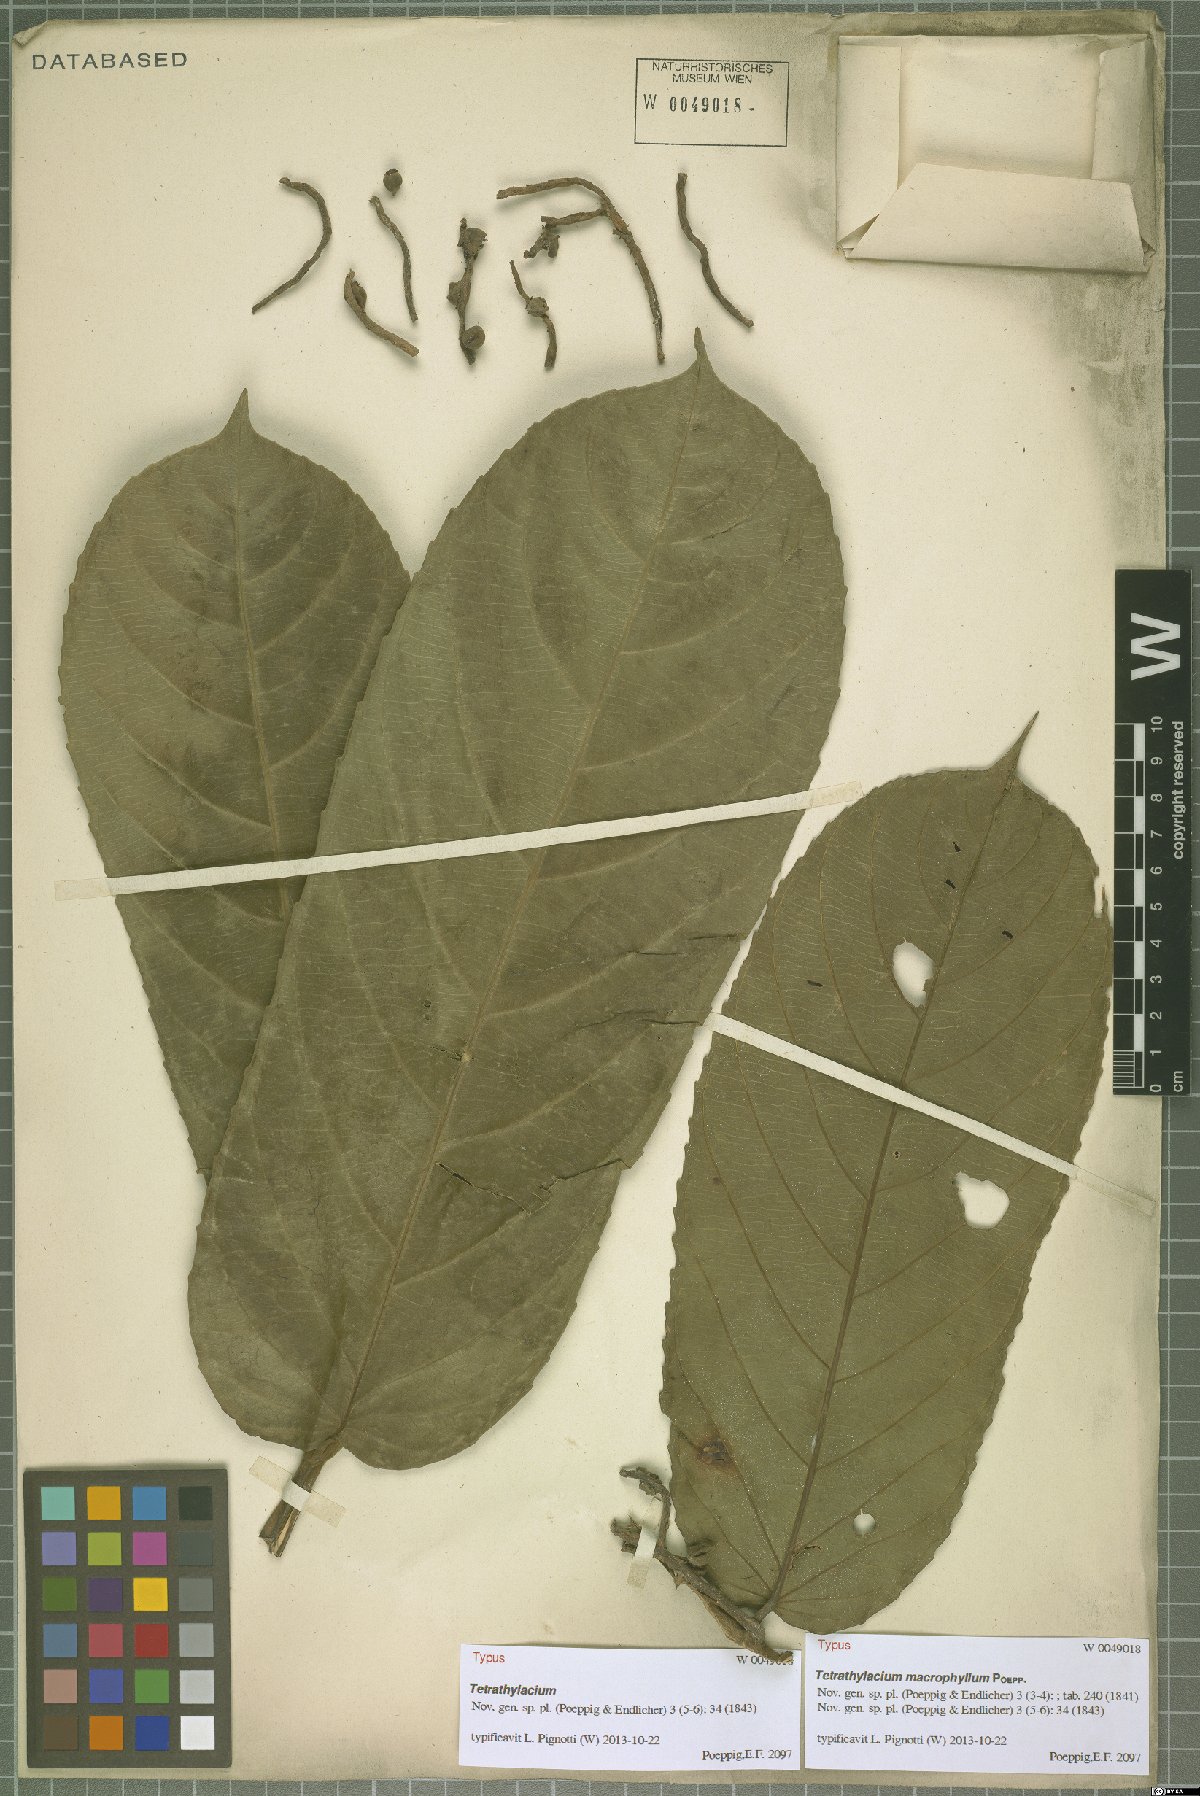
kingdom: Plantae
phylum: Tracheophyta
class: Magnoliopsida
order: Malpighiales
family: Salicaceae
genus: Tetrathylacium
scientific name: Tetrathylacium macrophyllum
